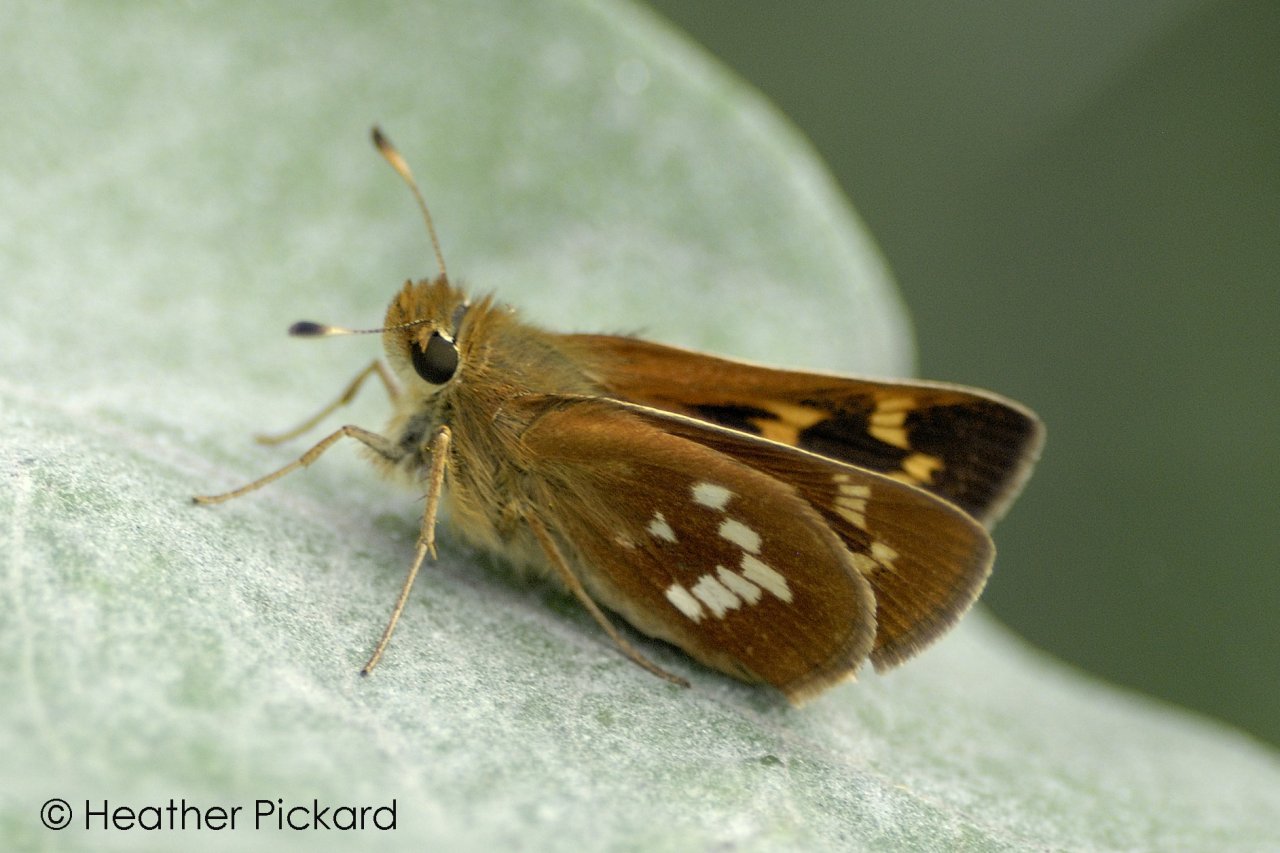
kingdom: Animalia
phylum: Arthropoda
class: Insecta
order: Lepidoptera
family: Hesperiidae
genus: Hesperia
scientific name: Hesperia leonardus
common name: Leonard's Skipper
